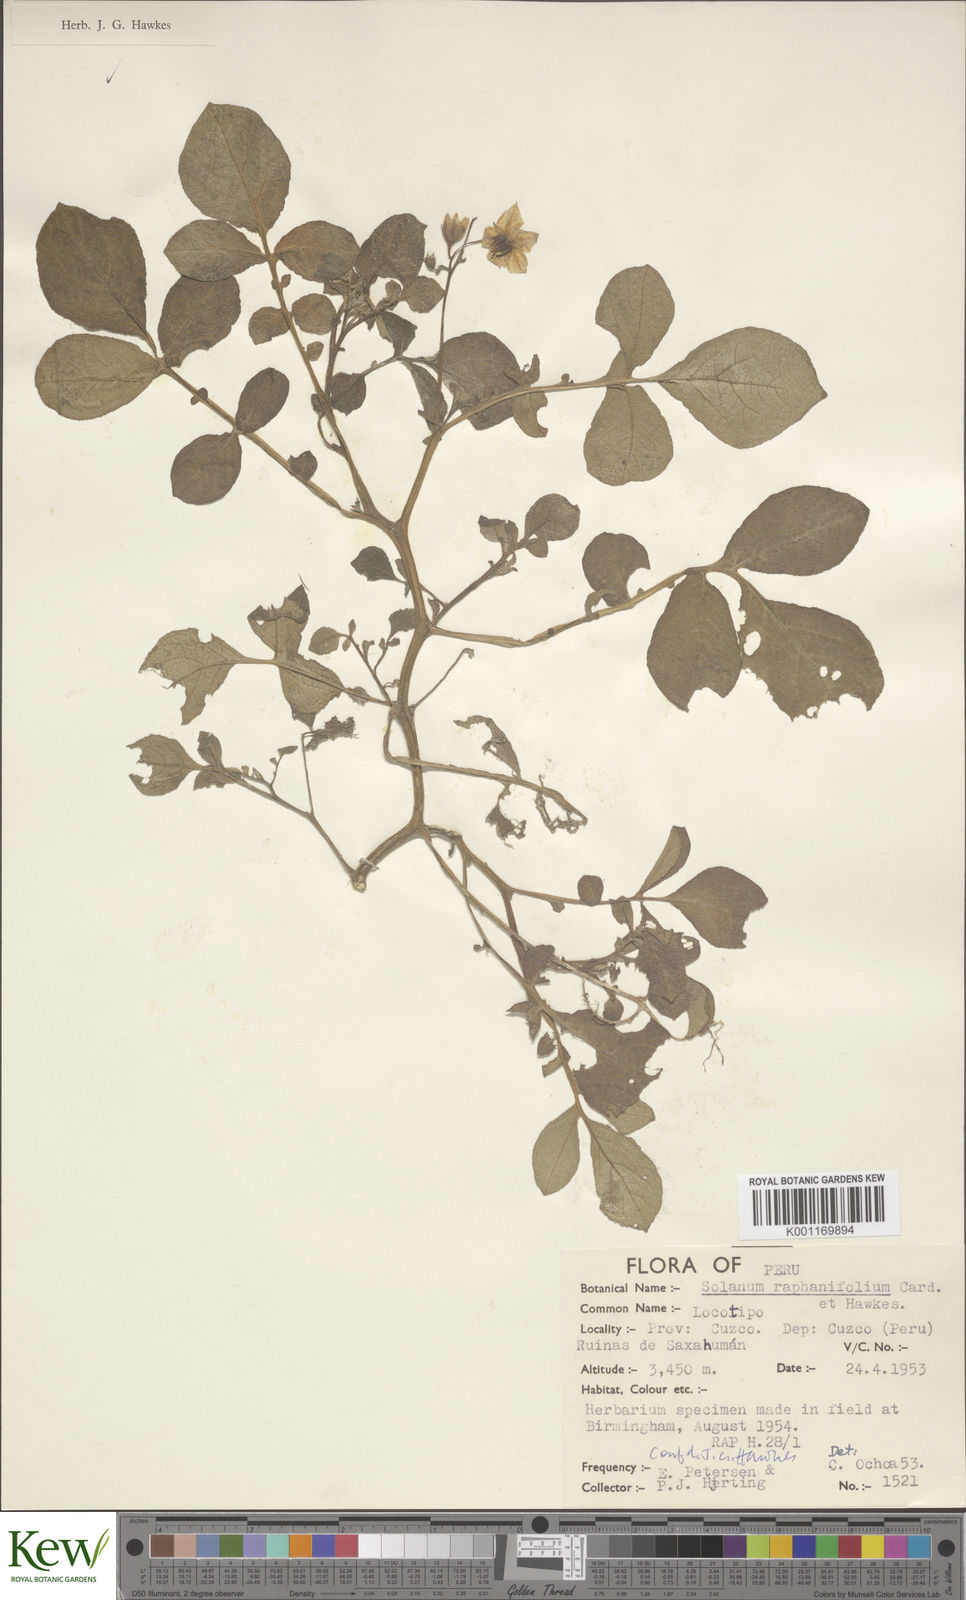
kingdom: Plantae
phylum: Tracheophyta
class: Magnoliopsida
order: Solanales
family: Solanaceae
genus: Solanum
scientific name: Solanum
